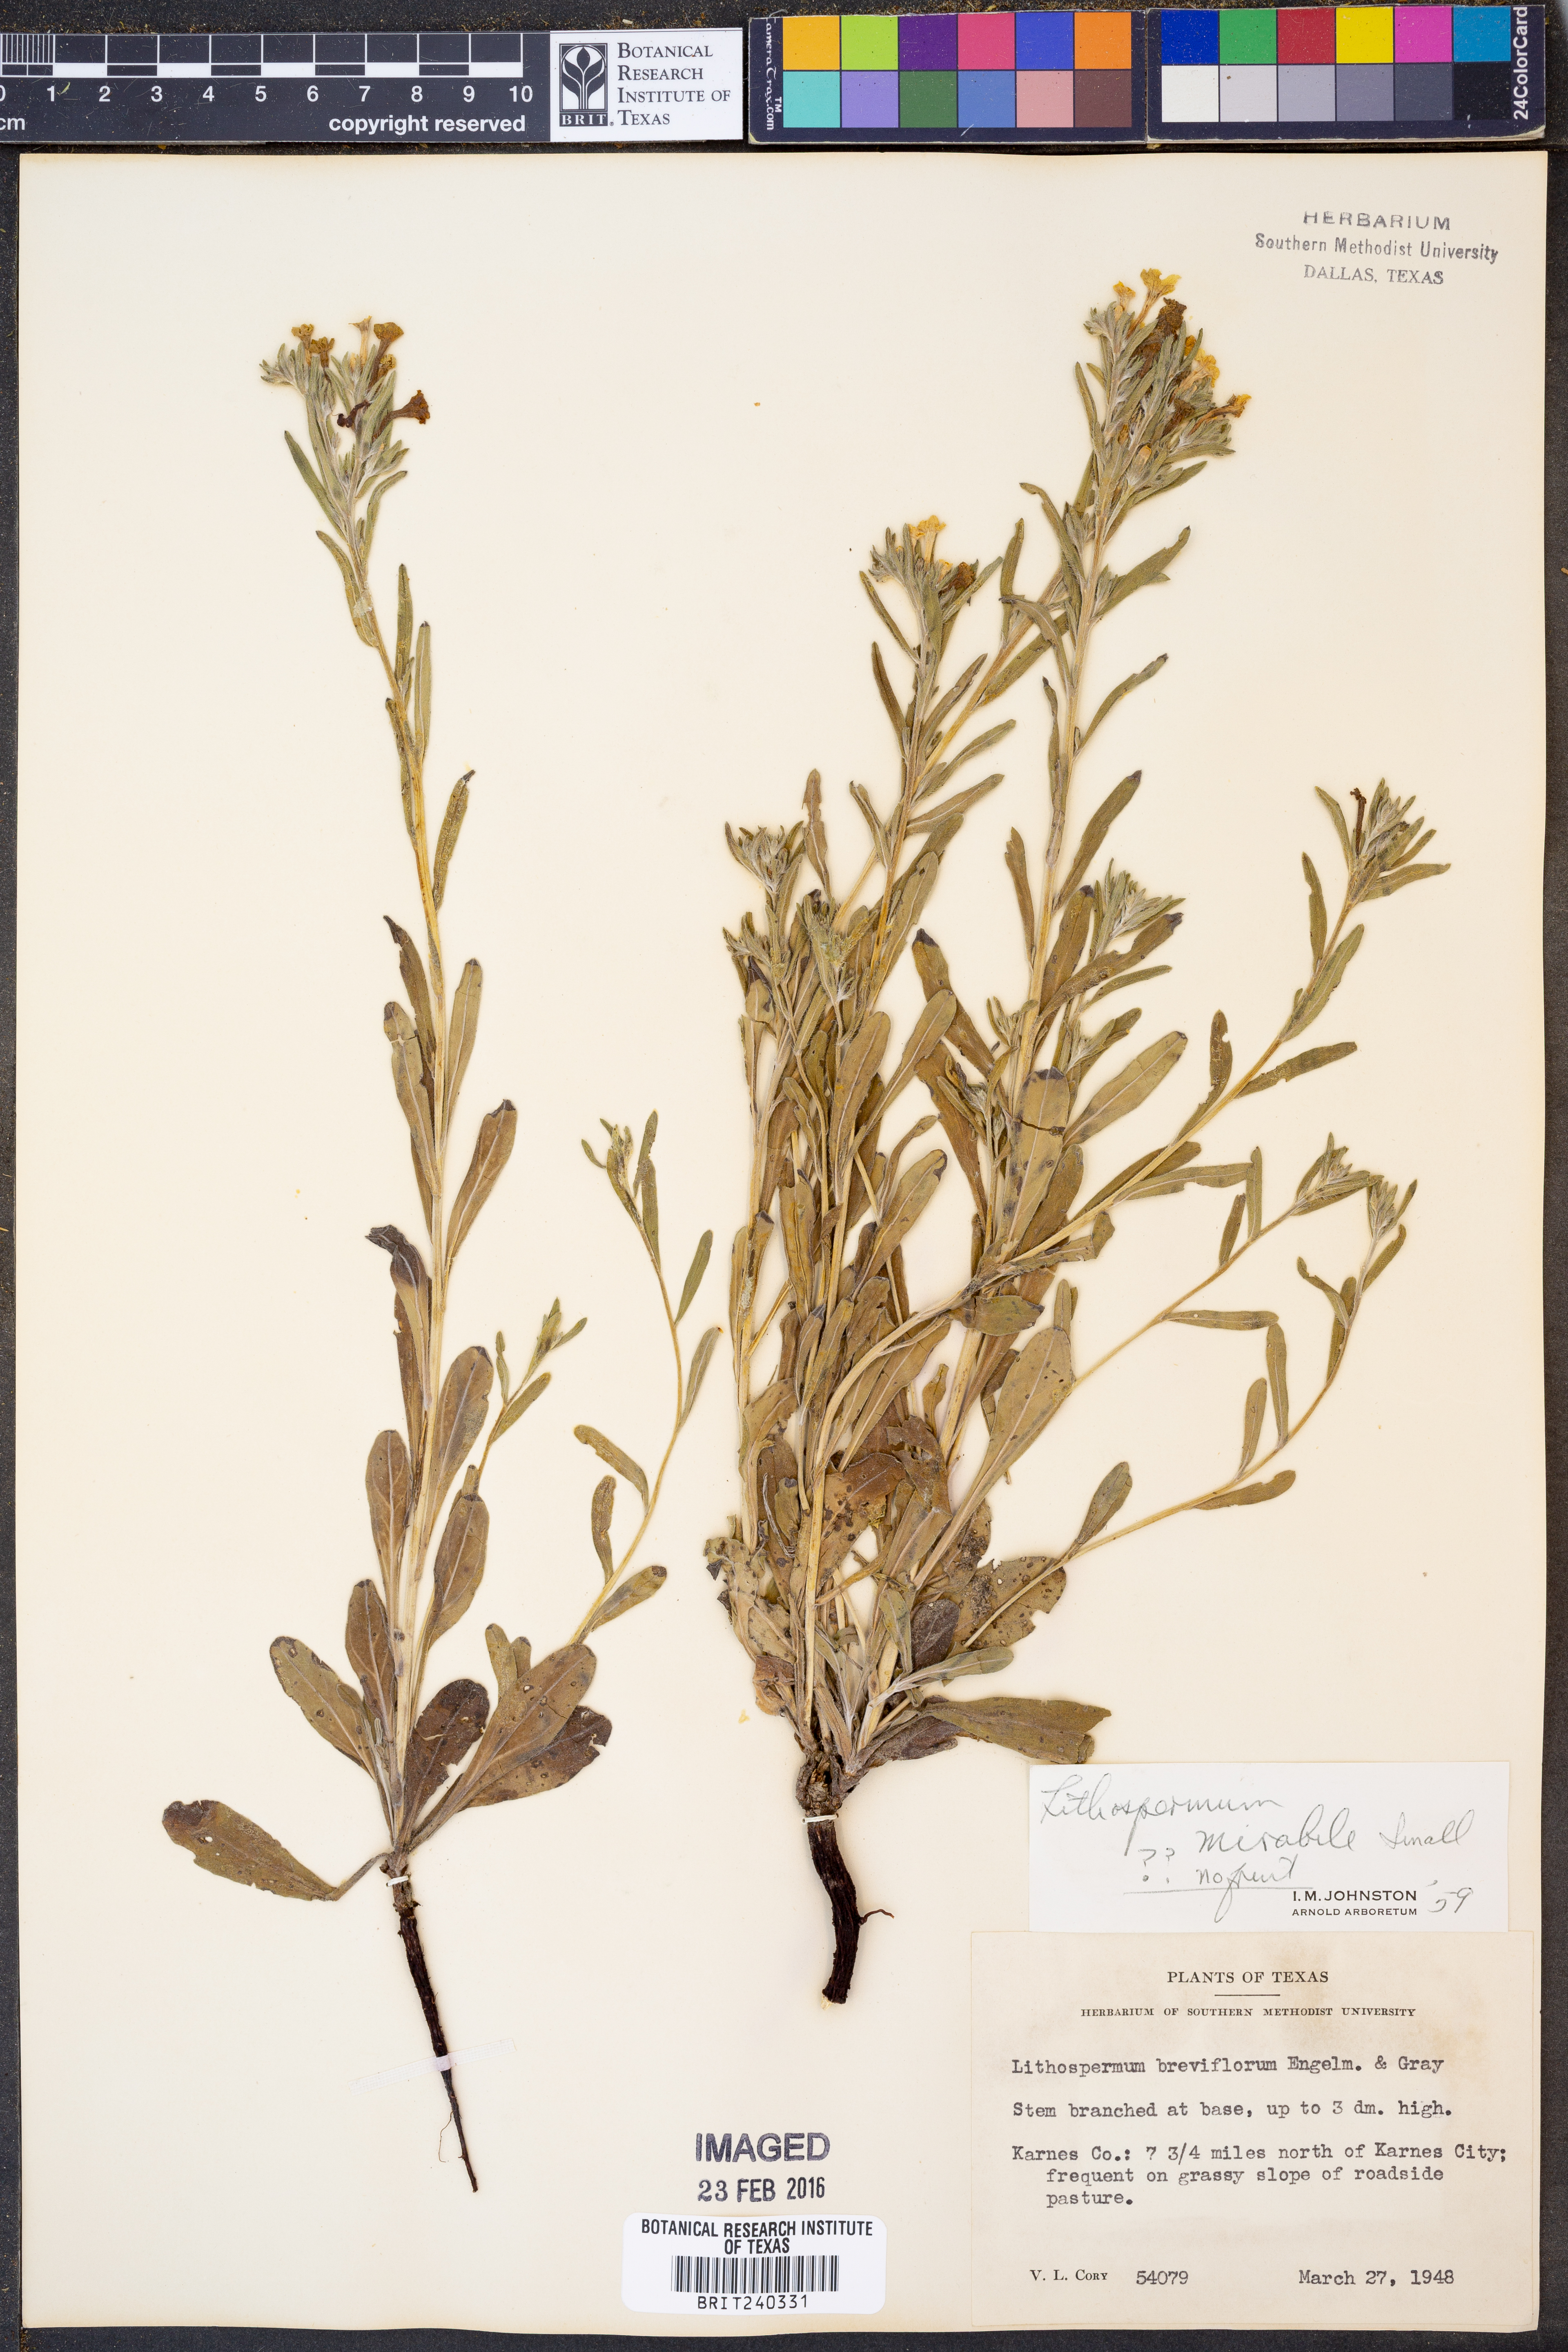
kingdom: Plantae
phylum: Tracheophyta
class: Magnoliopsida
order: Boraginales
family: Boraginaceae
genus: Lithospermum
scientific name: Lithospermum mirabile
